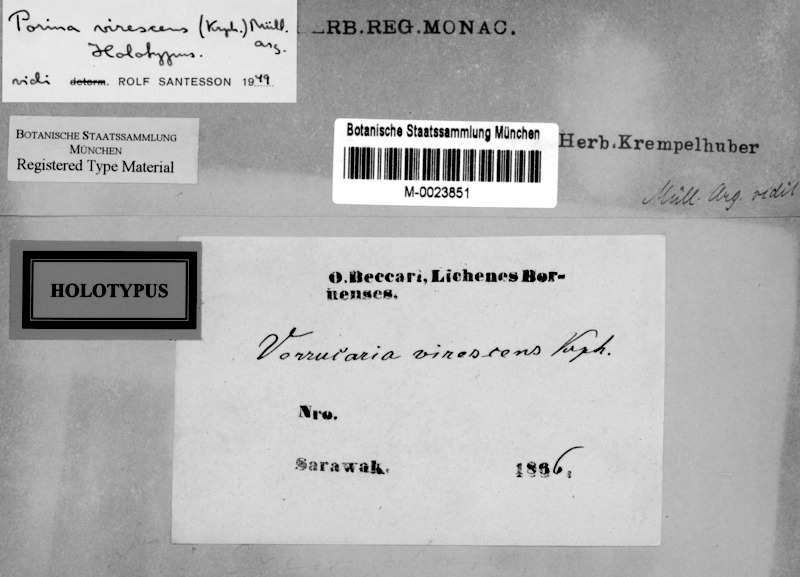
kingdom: Fungi
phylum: Ascomycota
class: Lecanoromycetes
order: Pertusariales
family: Pertusariaceae
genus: Porina
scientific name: Porina virescens
